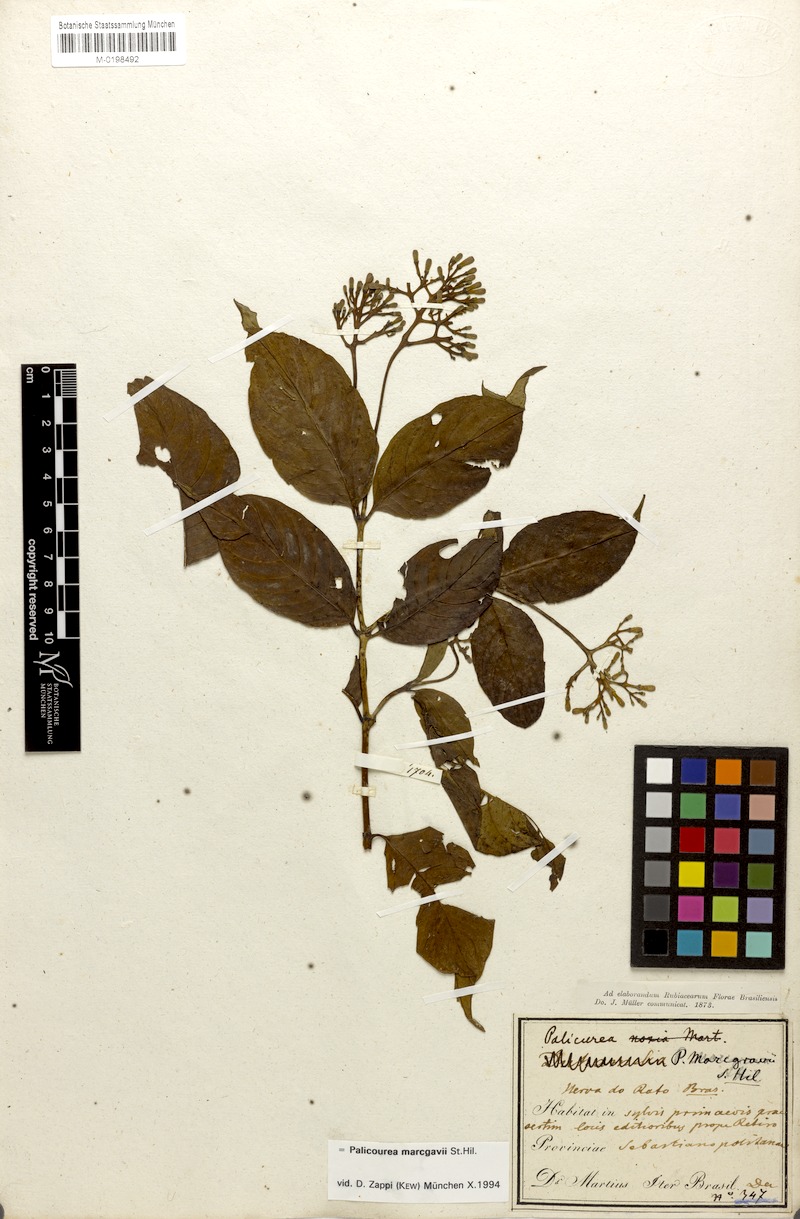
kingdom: Plantae
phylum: Tracheophyta
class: Magnoliopsida
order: Gentianales
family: Rubiaceae
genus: Palicourea
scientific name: Palicourea crocea
